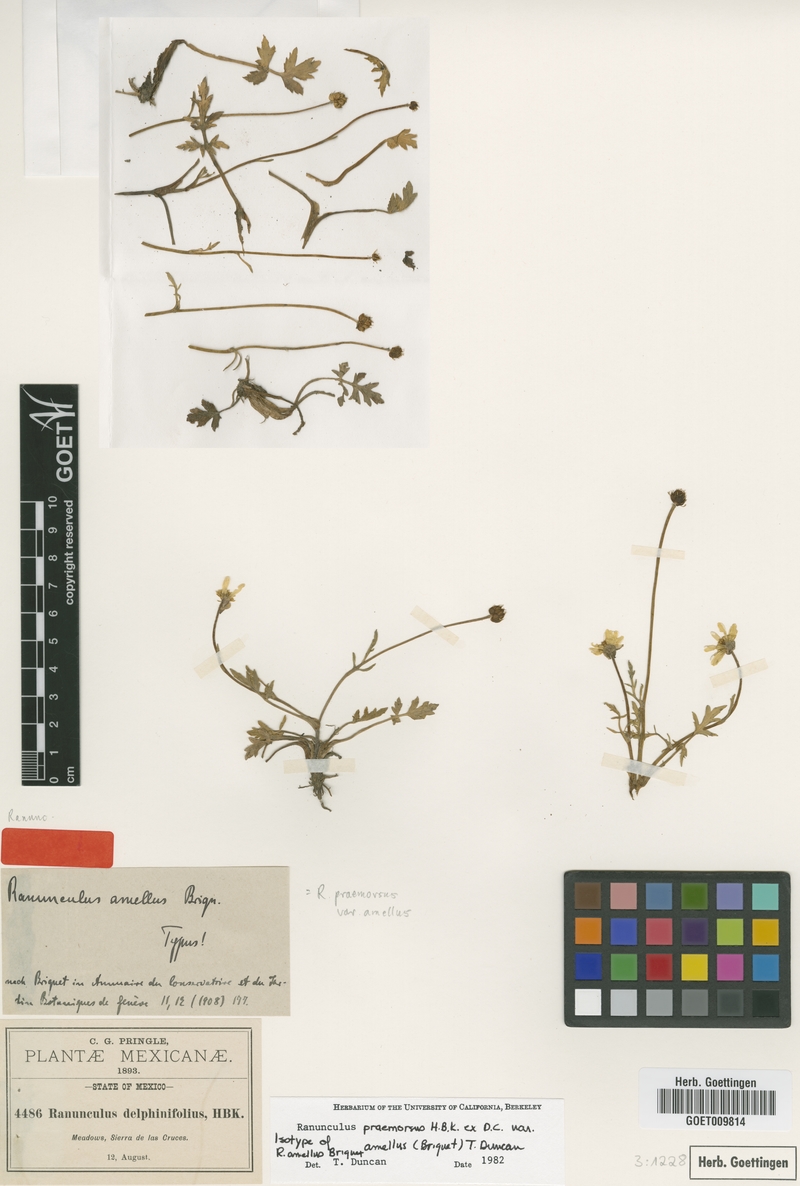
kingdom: Plantae
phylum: Tracheophyta
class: Magnoliopsida
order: Ranunculales
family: Ranunculaceae
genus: Ranunculus
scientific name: Ranunculus praemorsus
